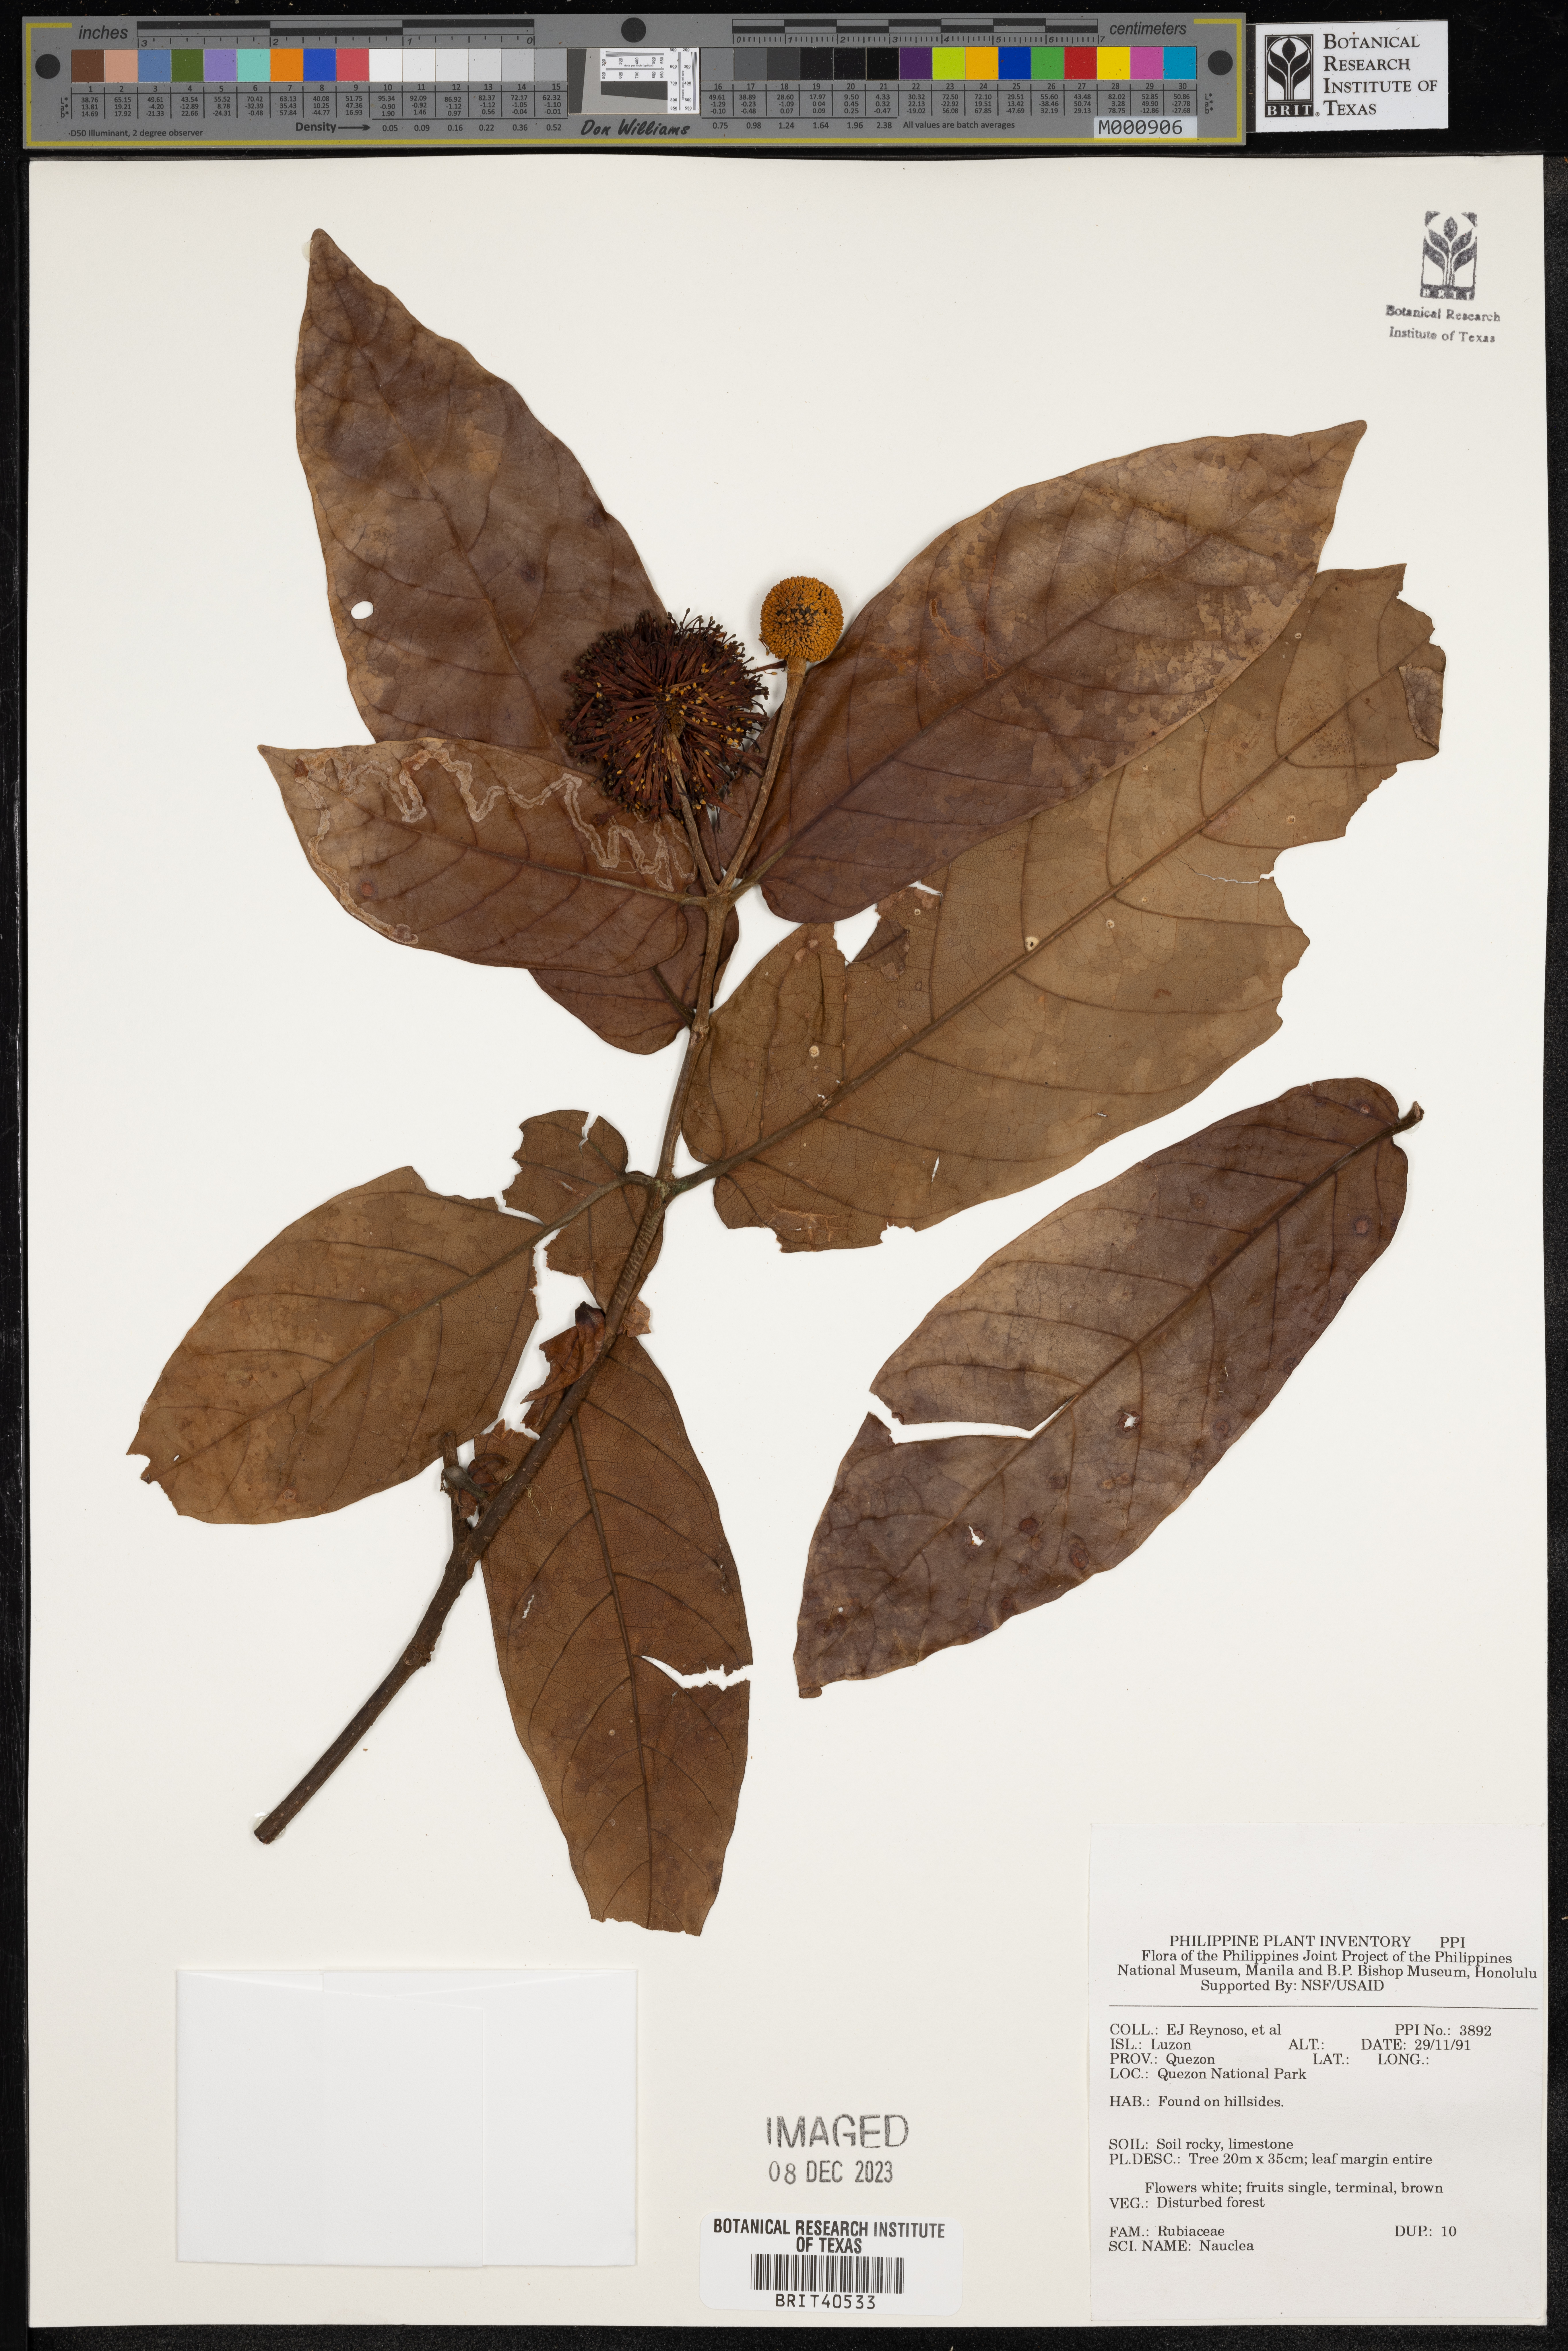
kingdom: Plantae
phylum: Tracheophyta
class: Magnoliopsida
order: Gentianales
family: Rubiaceae
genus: Nauclea
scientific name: Nauclea
